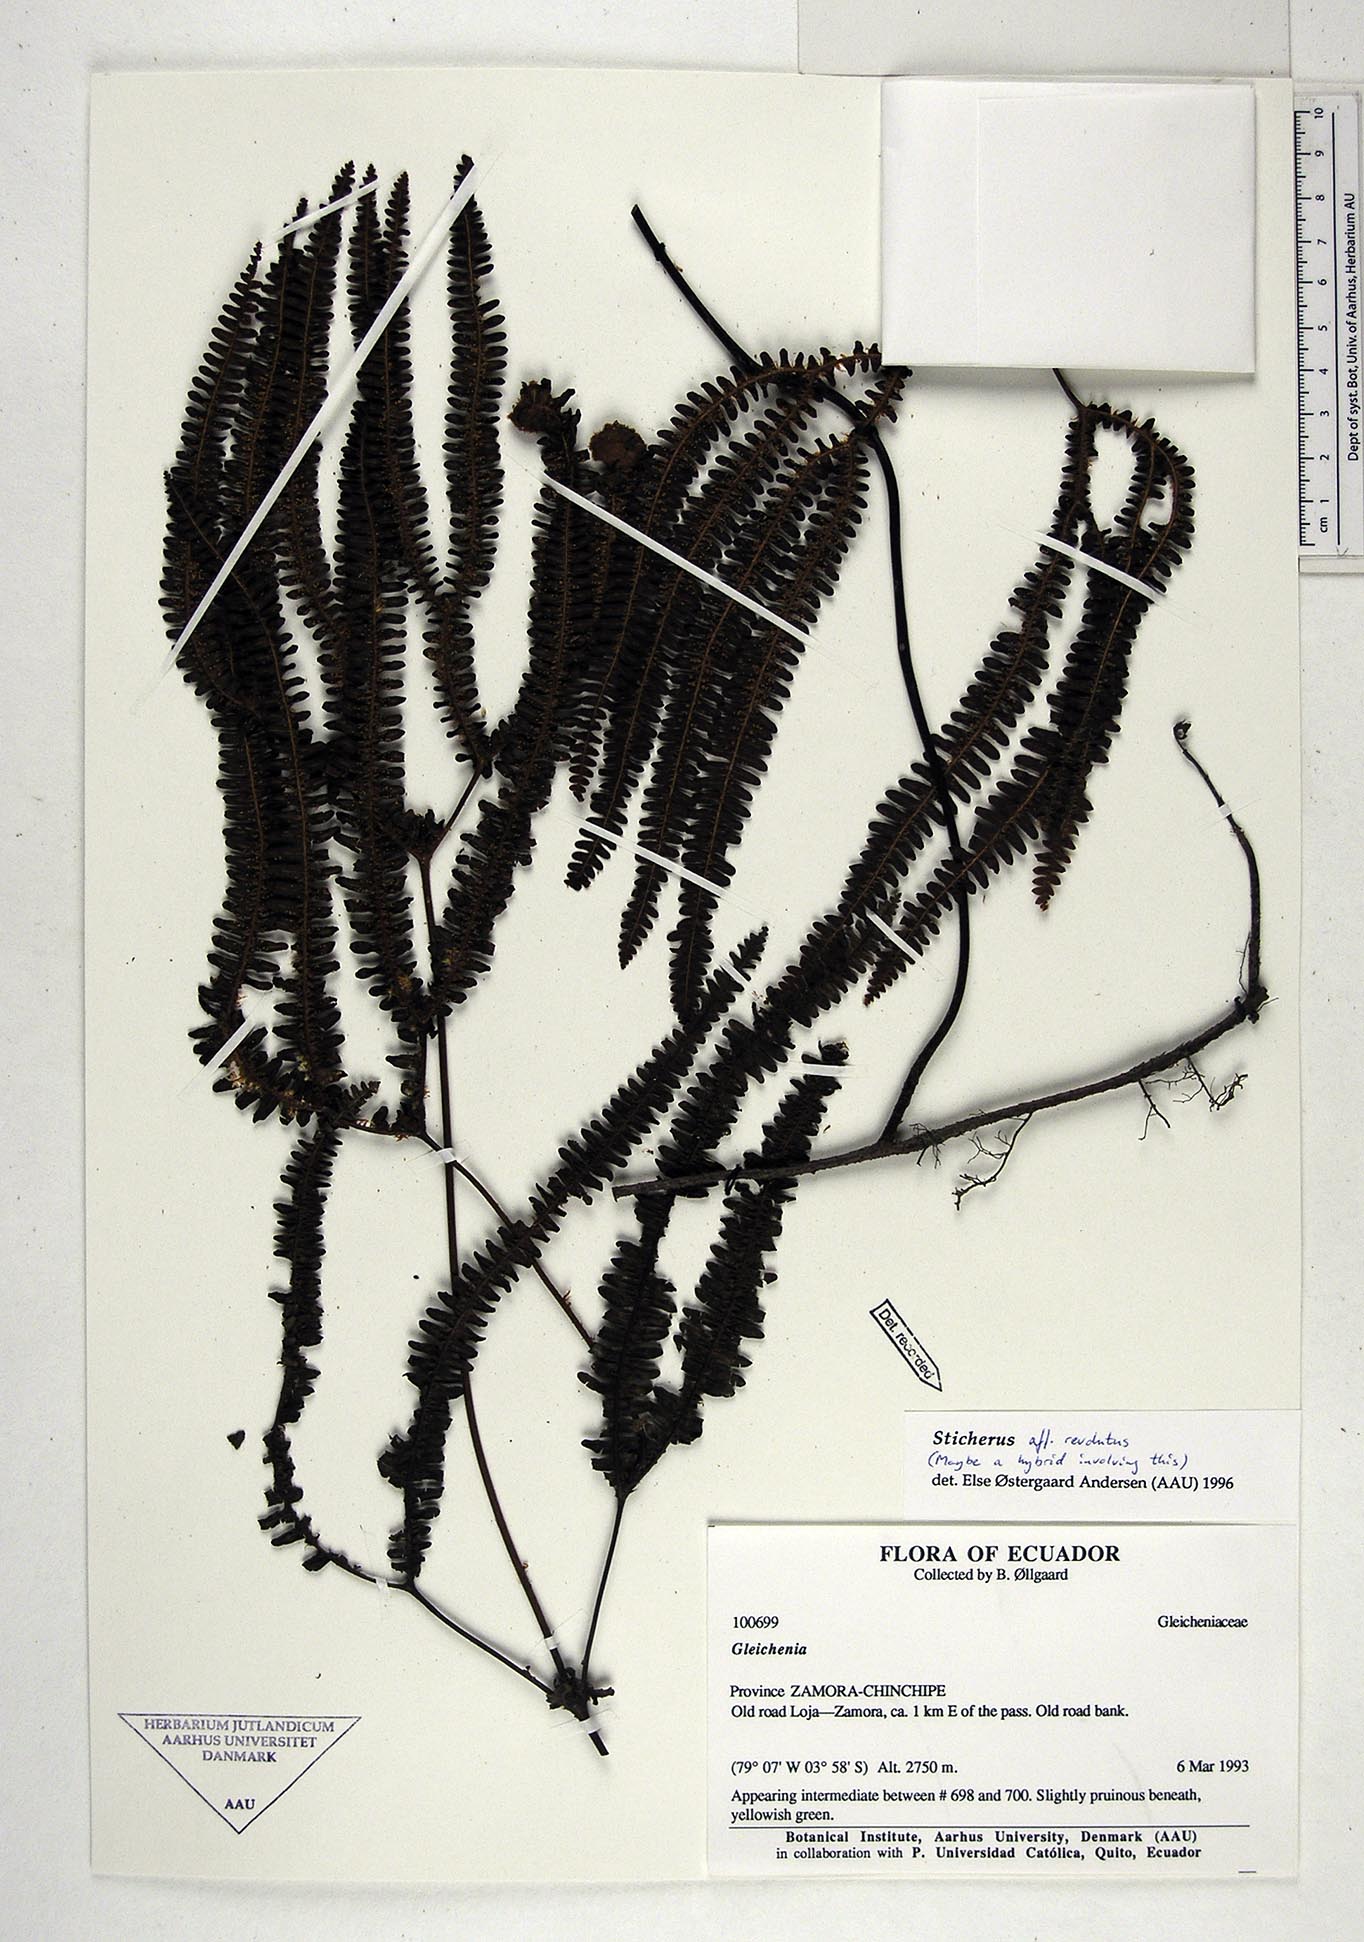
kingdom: Plantae
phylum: Tracheophyta
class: Polypodiopsida
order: Gleicheniales
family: Gleicheniaceae
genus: Sticherus
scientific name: Sticherus revolutus
